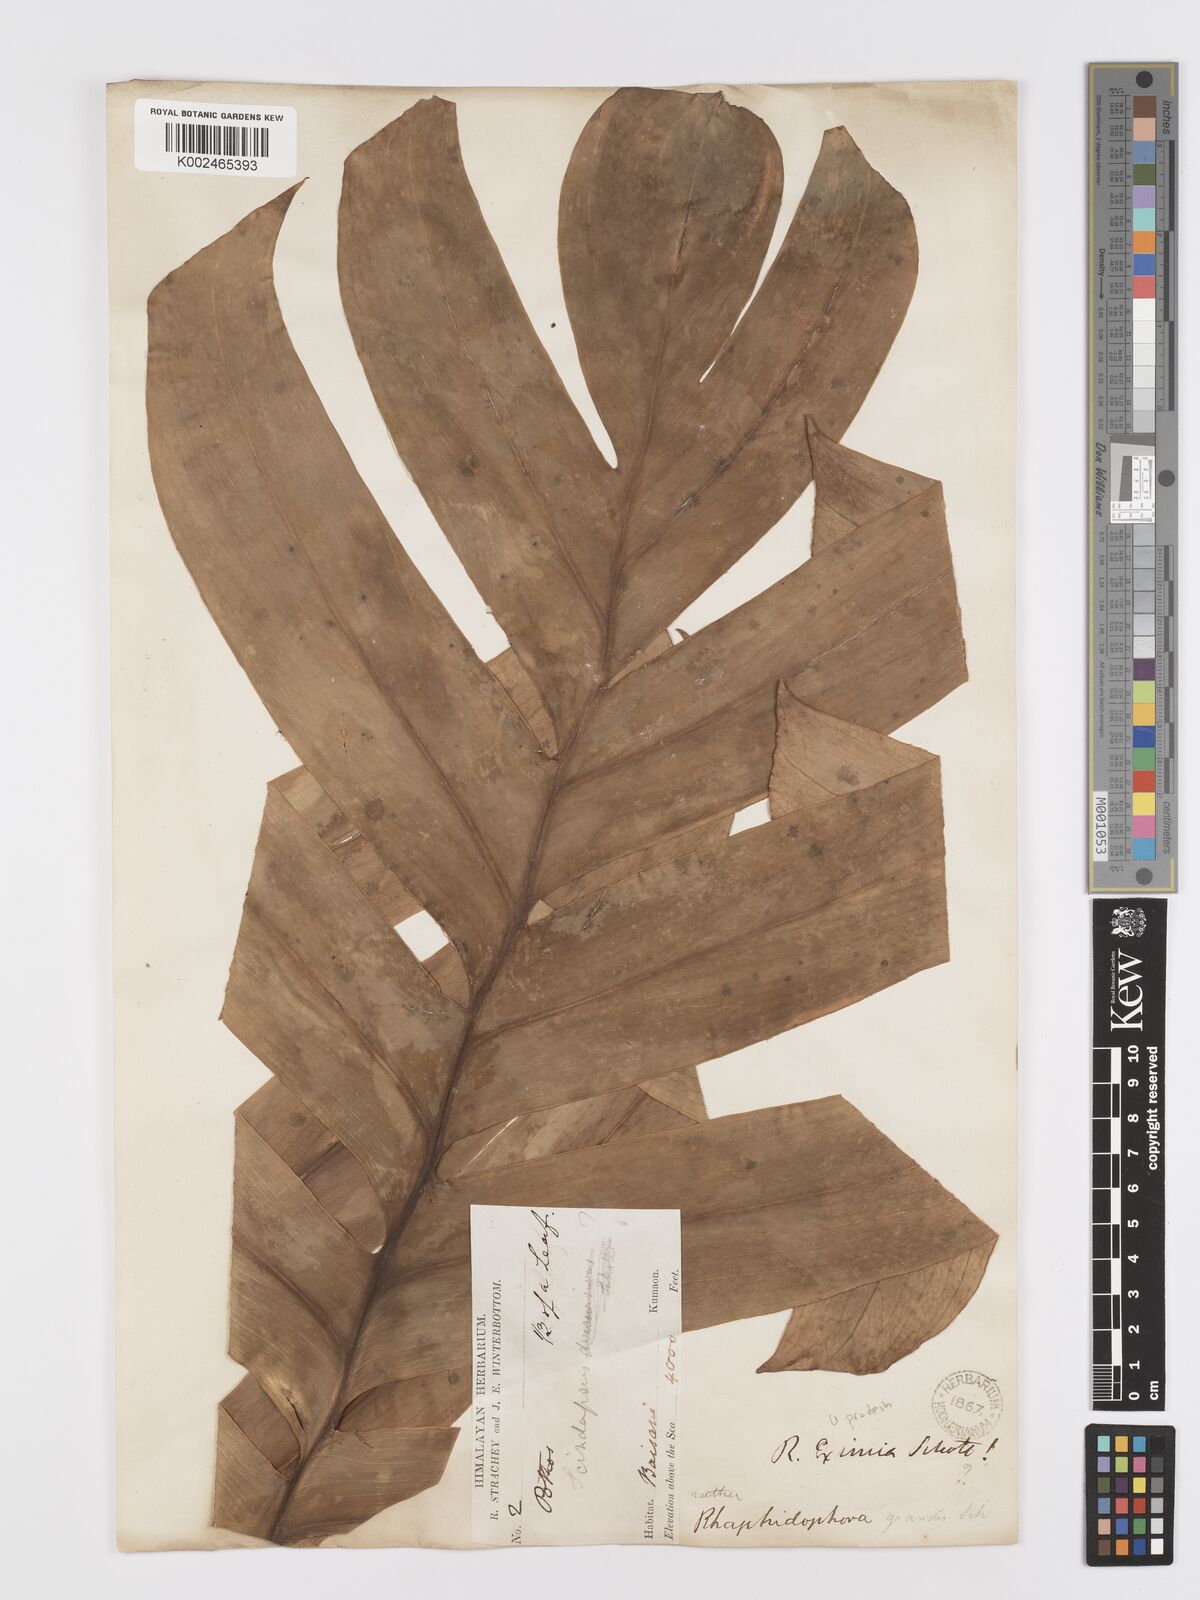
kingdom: Plantae
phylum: Tracheophyta
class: Liliopsida
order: Alismatales
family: Araceae
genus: Rhaphidophora
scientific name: Rhaphidophora decursiva
